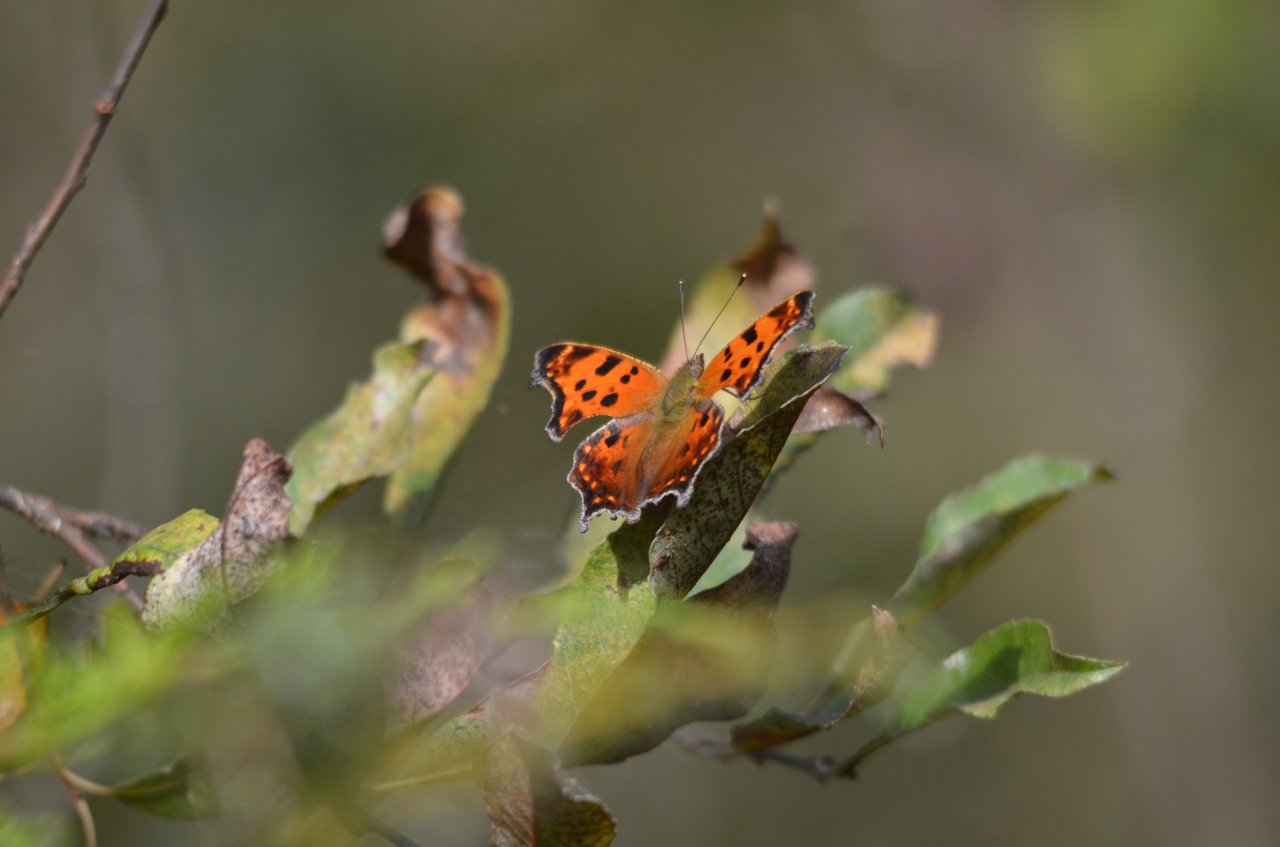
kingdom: Animalia
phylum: Arthropoda
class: Insecta
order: Lepidoptera
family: Nymphalidae
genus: Polygonia
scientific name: Polygonia comma
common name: Eastern Comma
